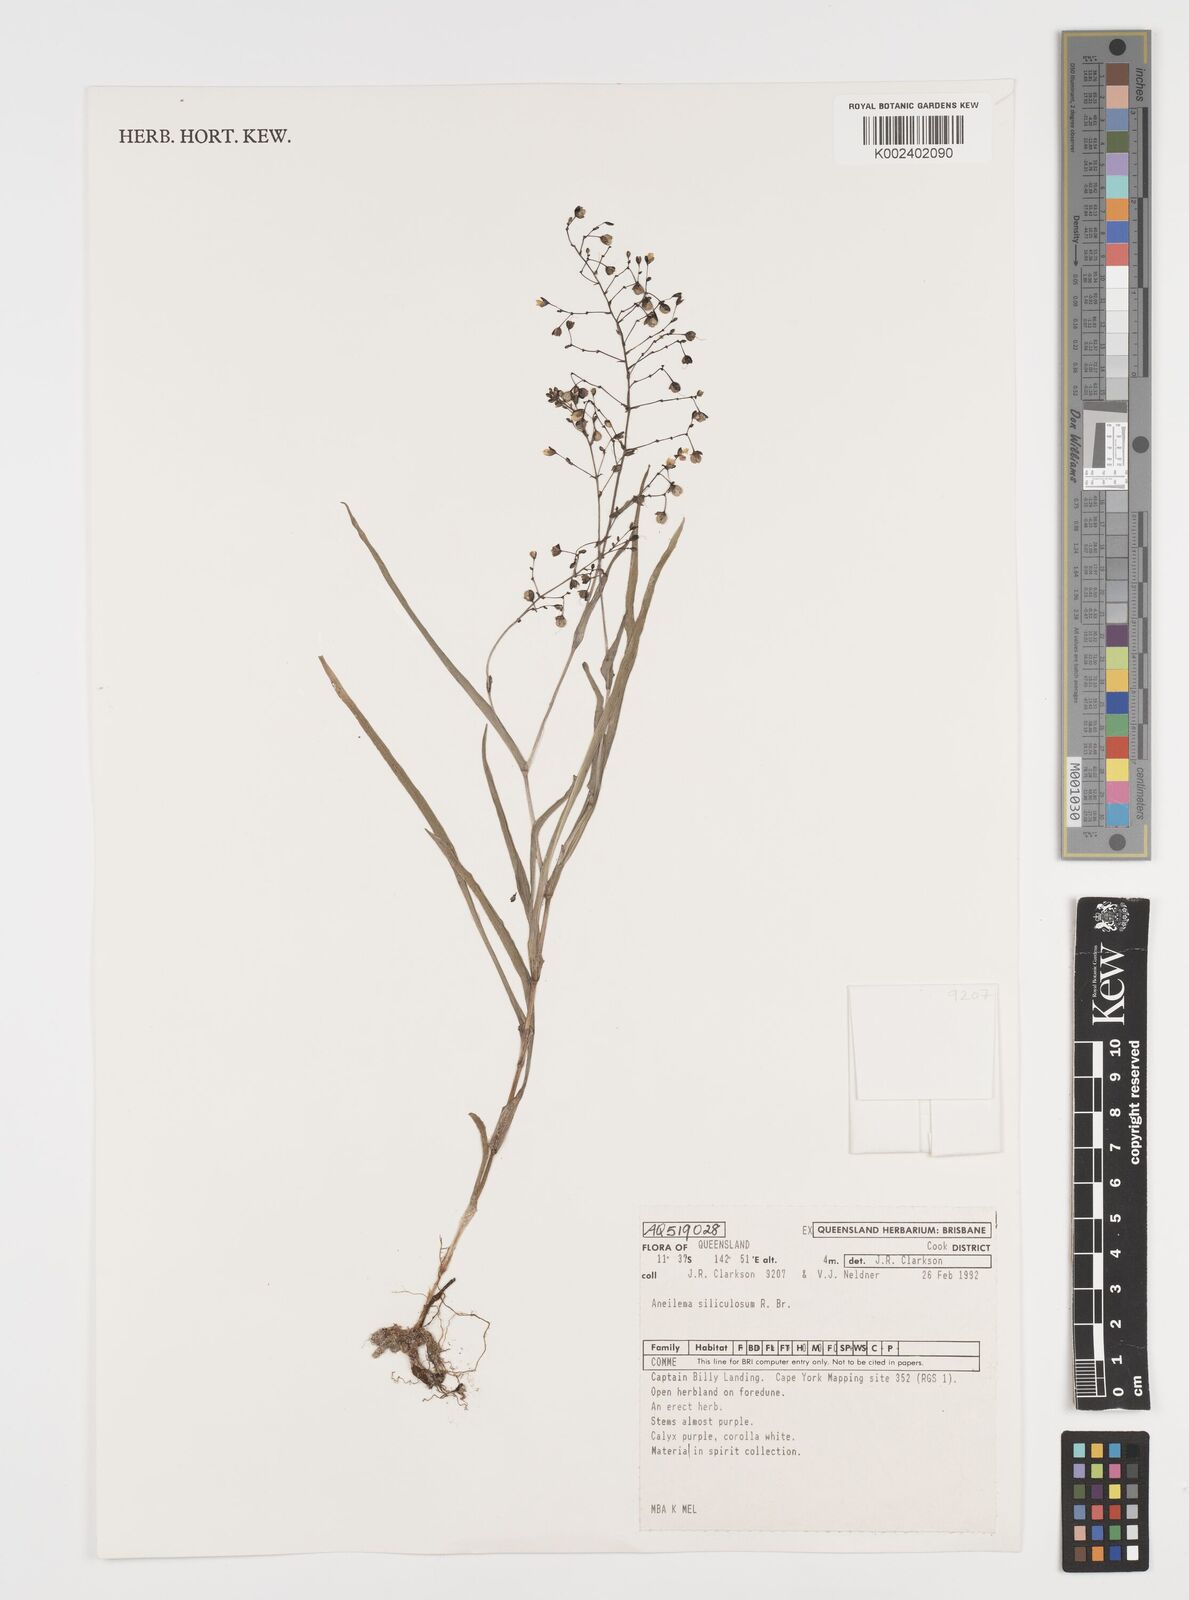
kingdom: Plantae
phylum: Tracheophyta
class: Liliopsida
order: Commelinales
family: Commelinaceae
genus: Aneilema
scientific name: Aneilema siliculosum
